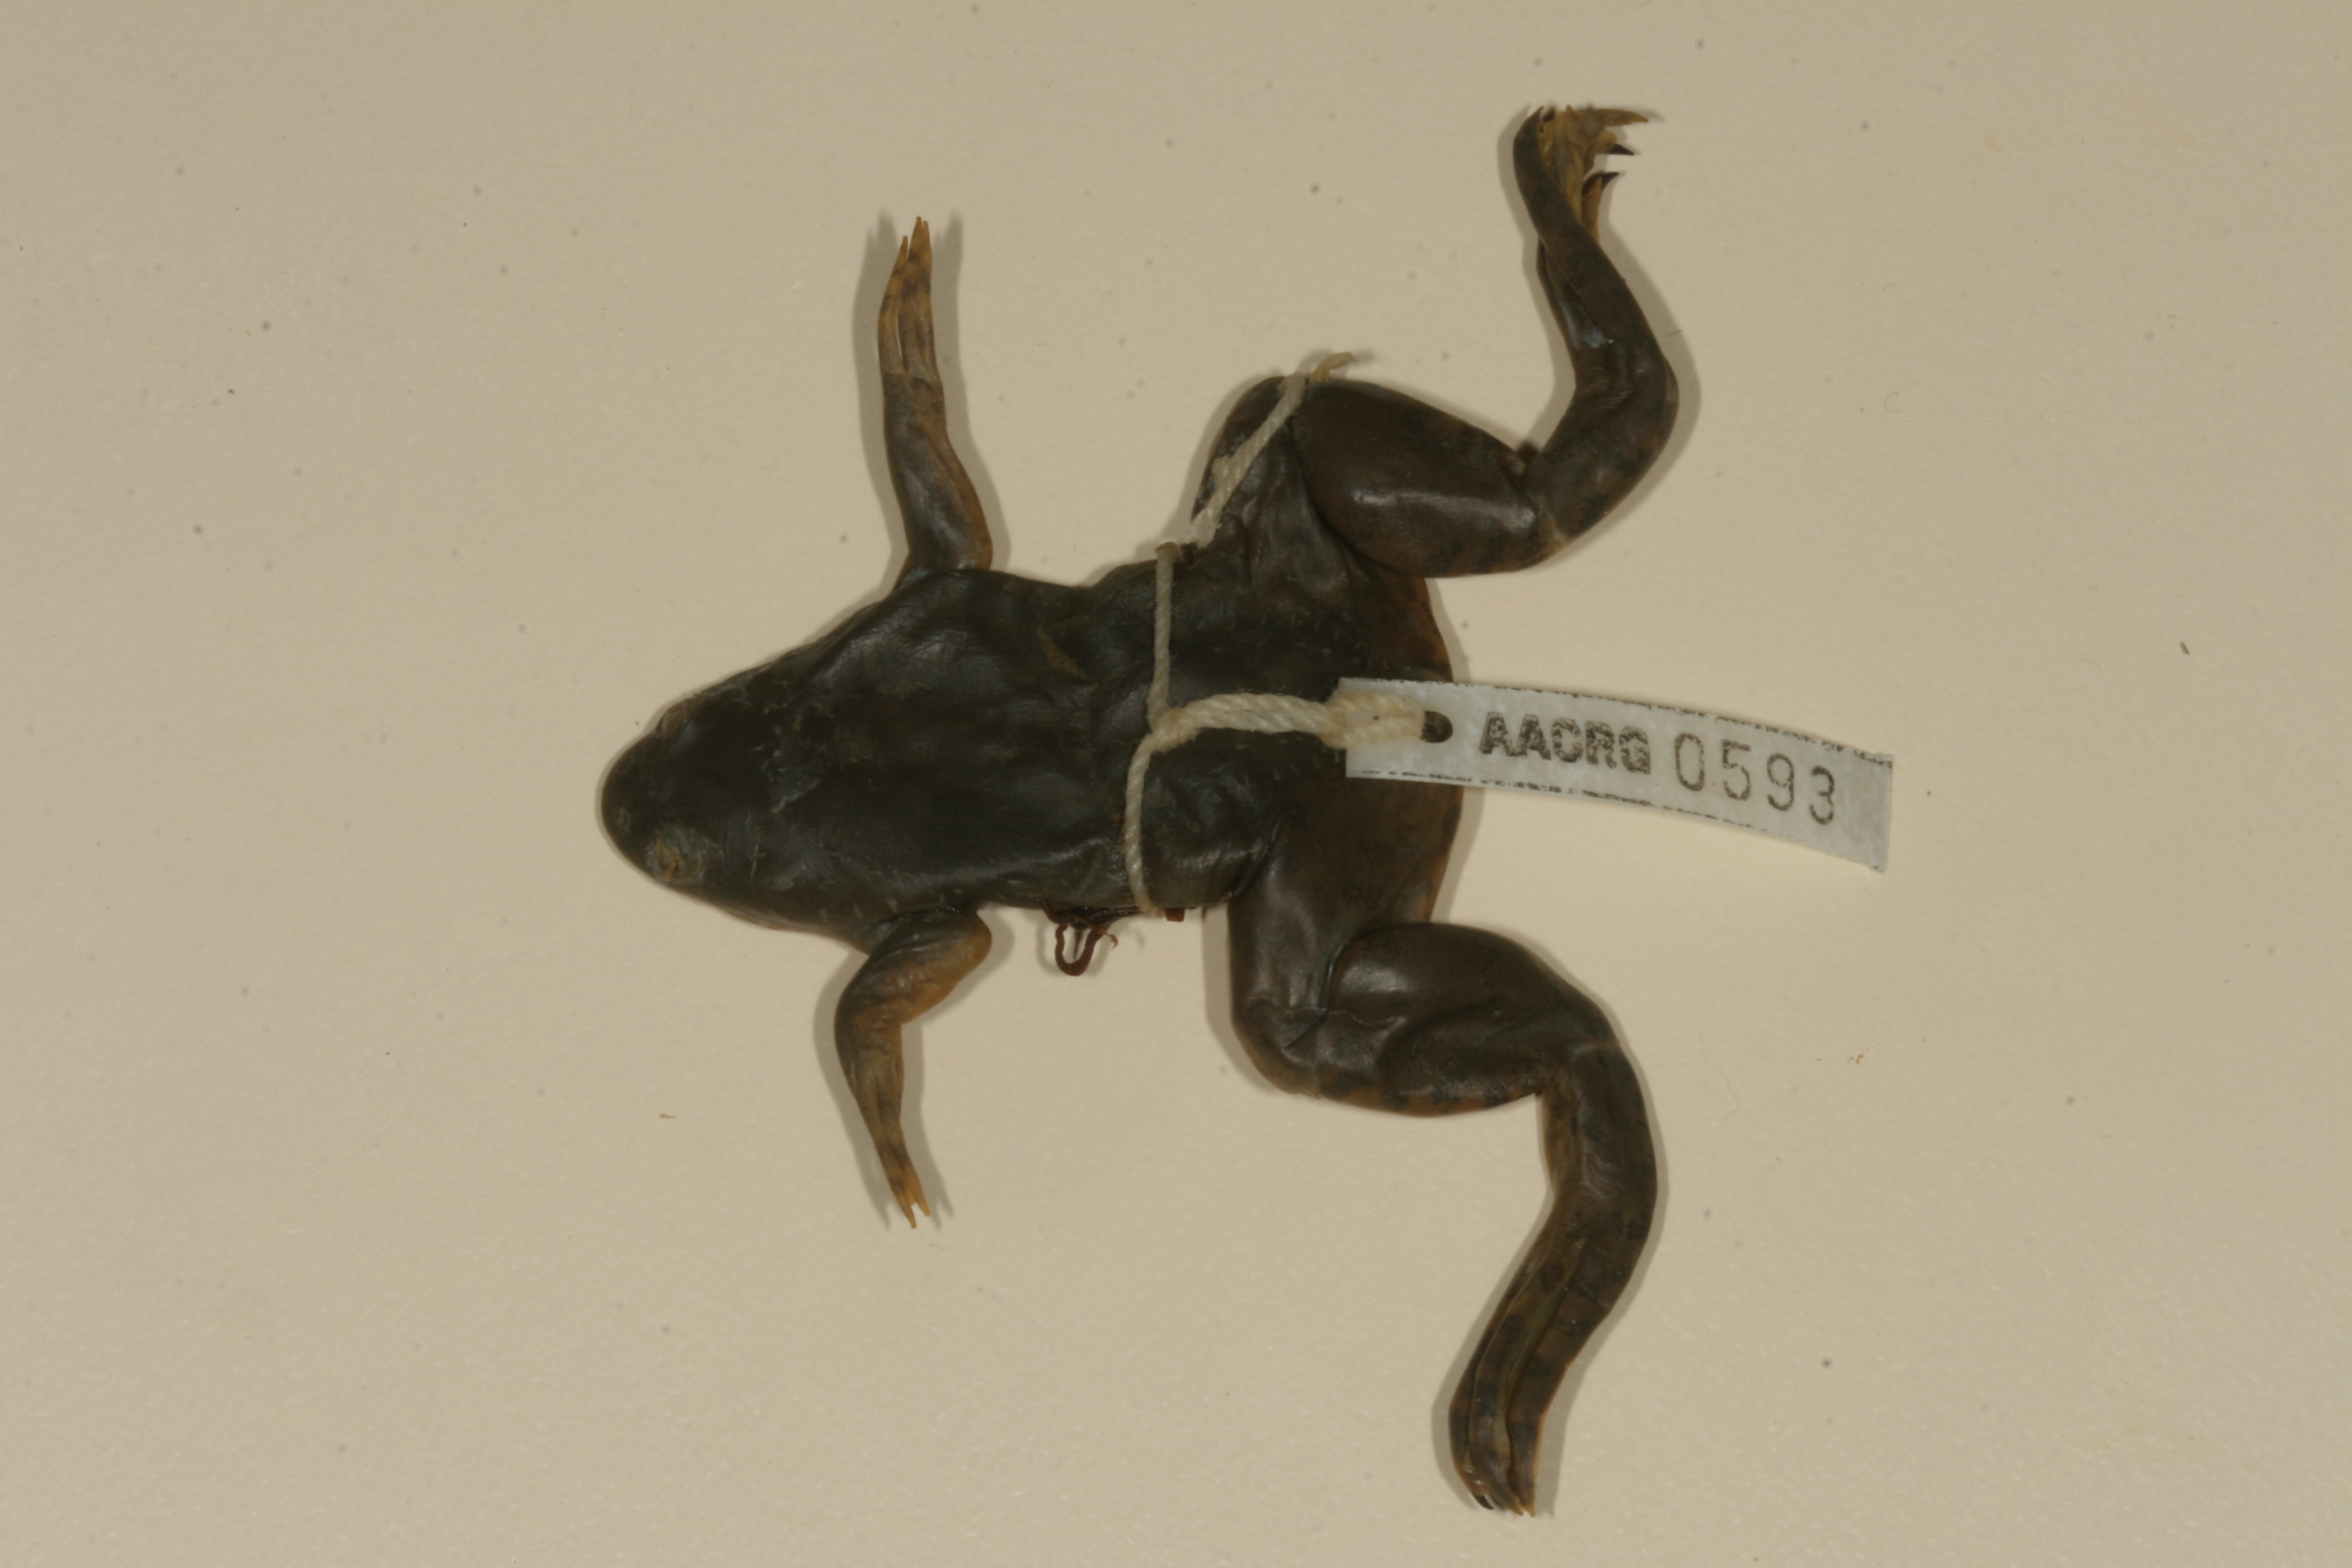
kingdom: Animalia
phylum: Chordata
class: Amphibia
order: Anura
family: Pipidae
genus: Xenopus
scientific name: Xenopus muelleri
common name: Muller's clawed frog
